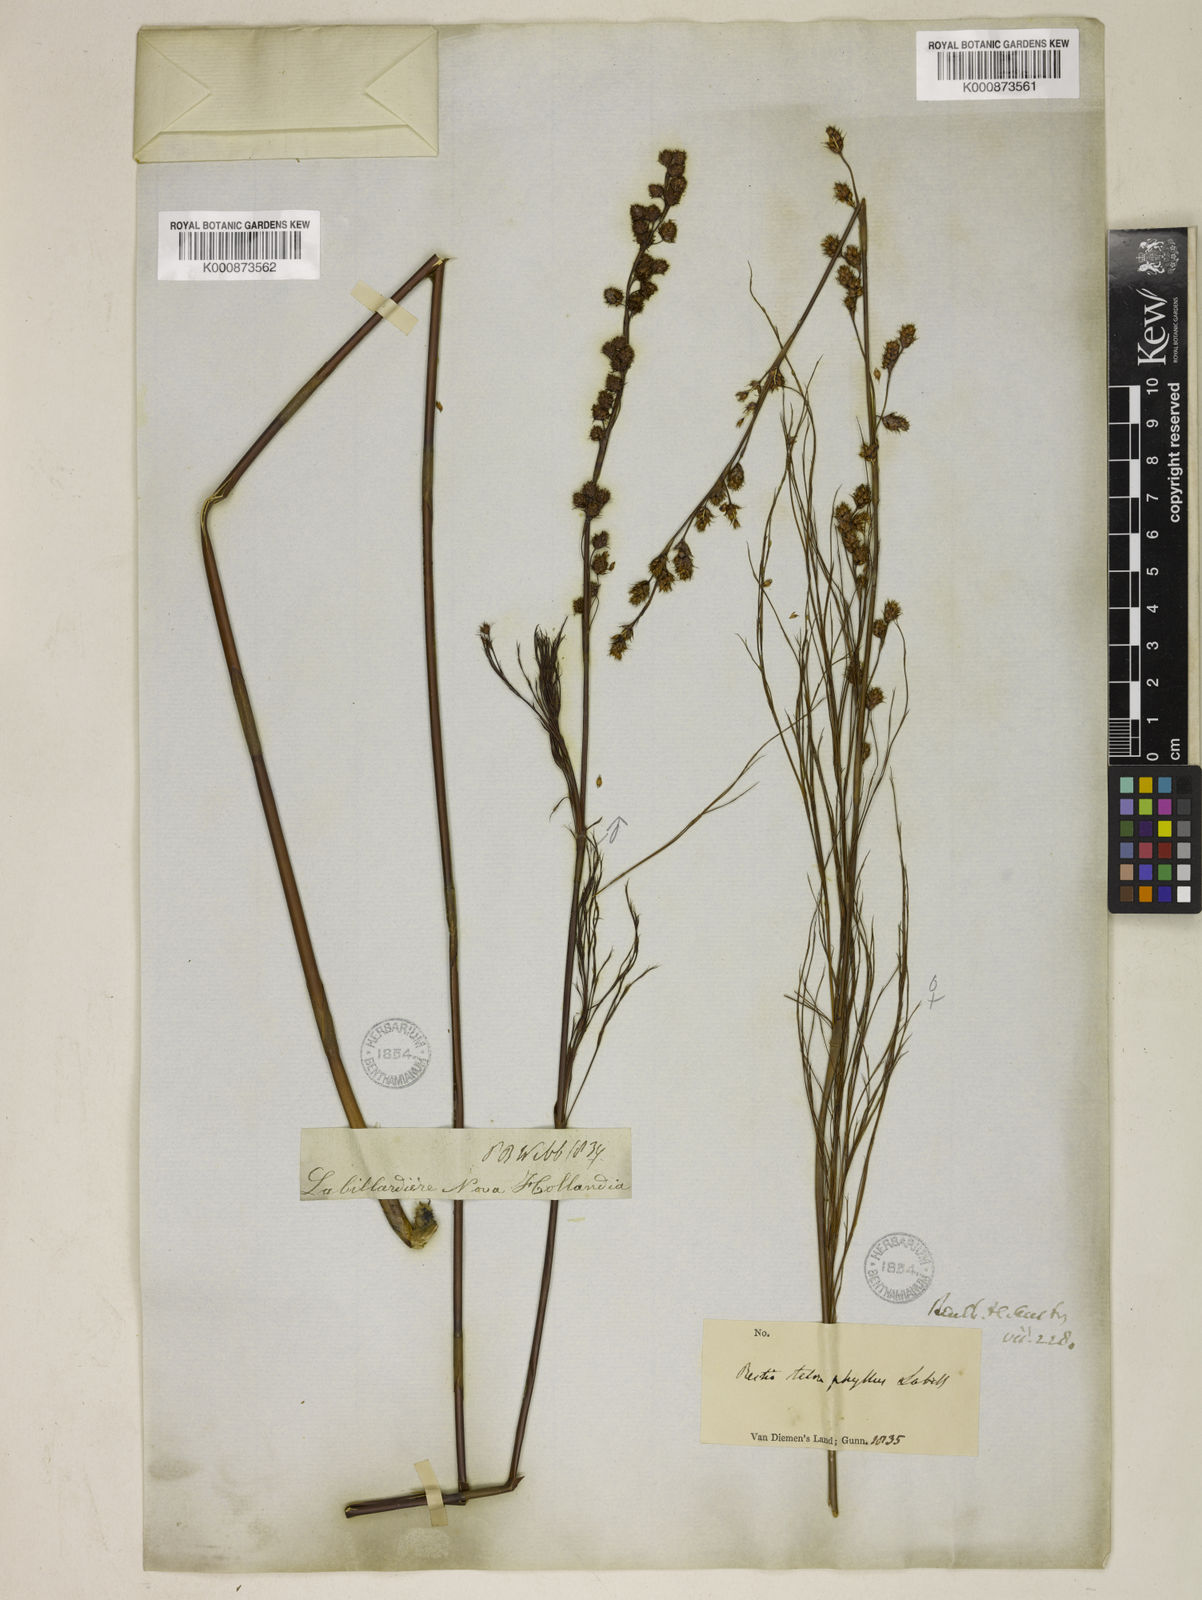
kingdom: Plantae
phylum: Tracheophyta
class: Liliopsida
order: Poales
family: Restionaceae
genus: Baloskion
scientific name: Baloskion tetraphyllum
